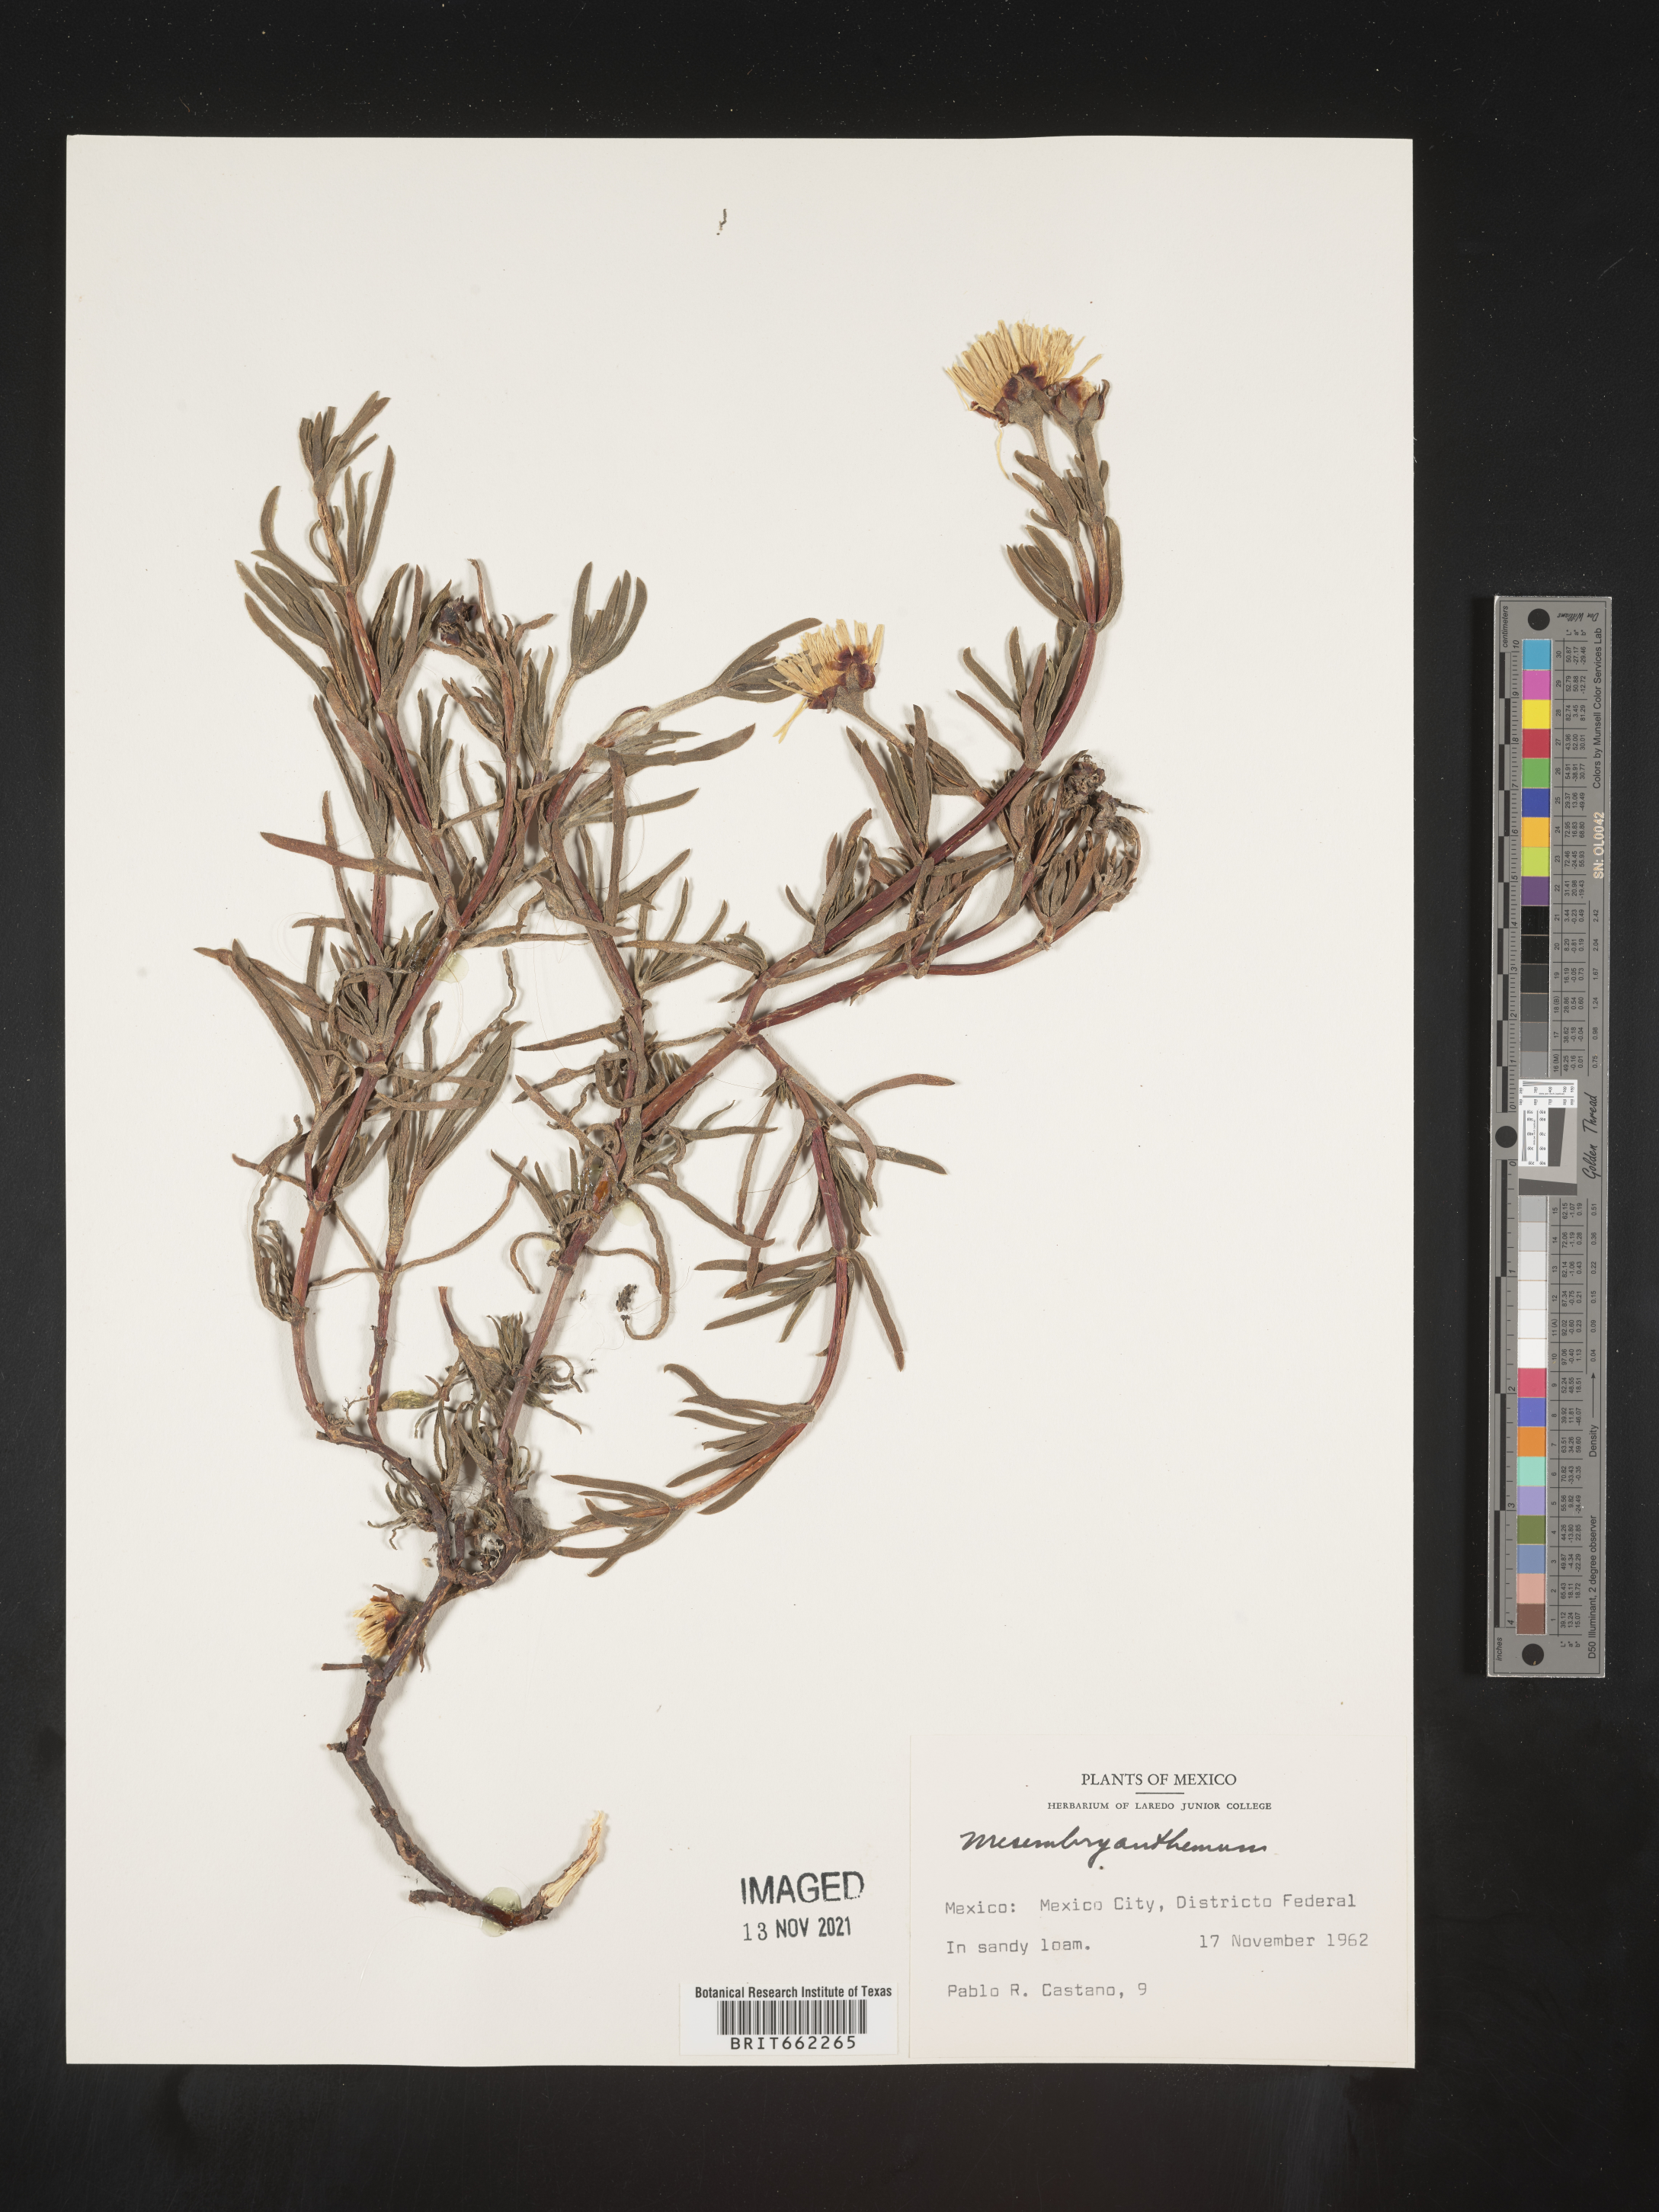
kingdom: Plantae
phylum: Tracheophyta
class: Magnoliopsida
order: Caryophyllales
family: Aizoaceae
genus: Mesembryanthemum
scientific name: Mesembryanthemum
